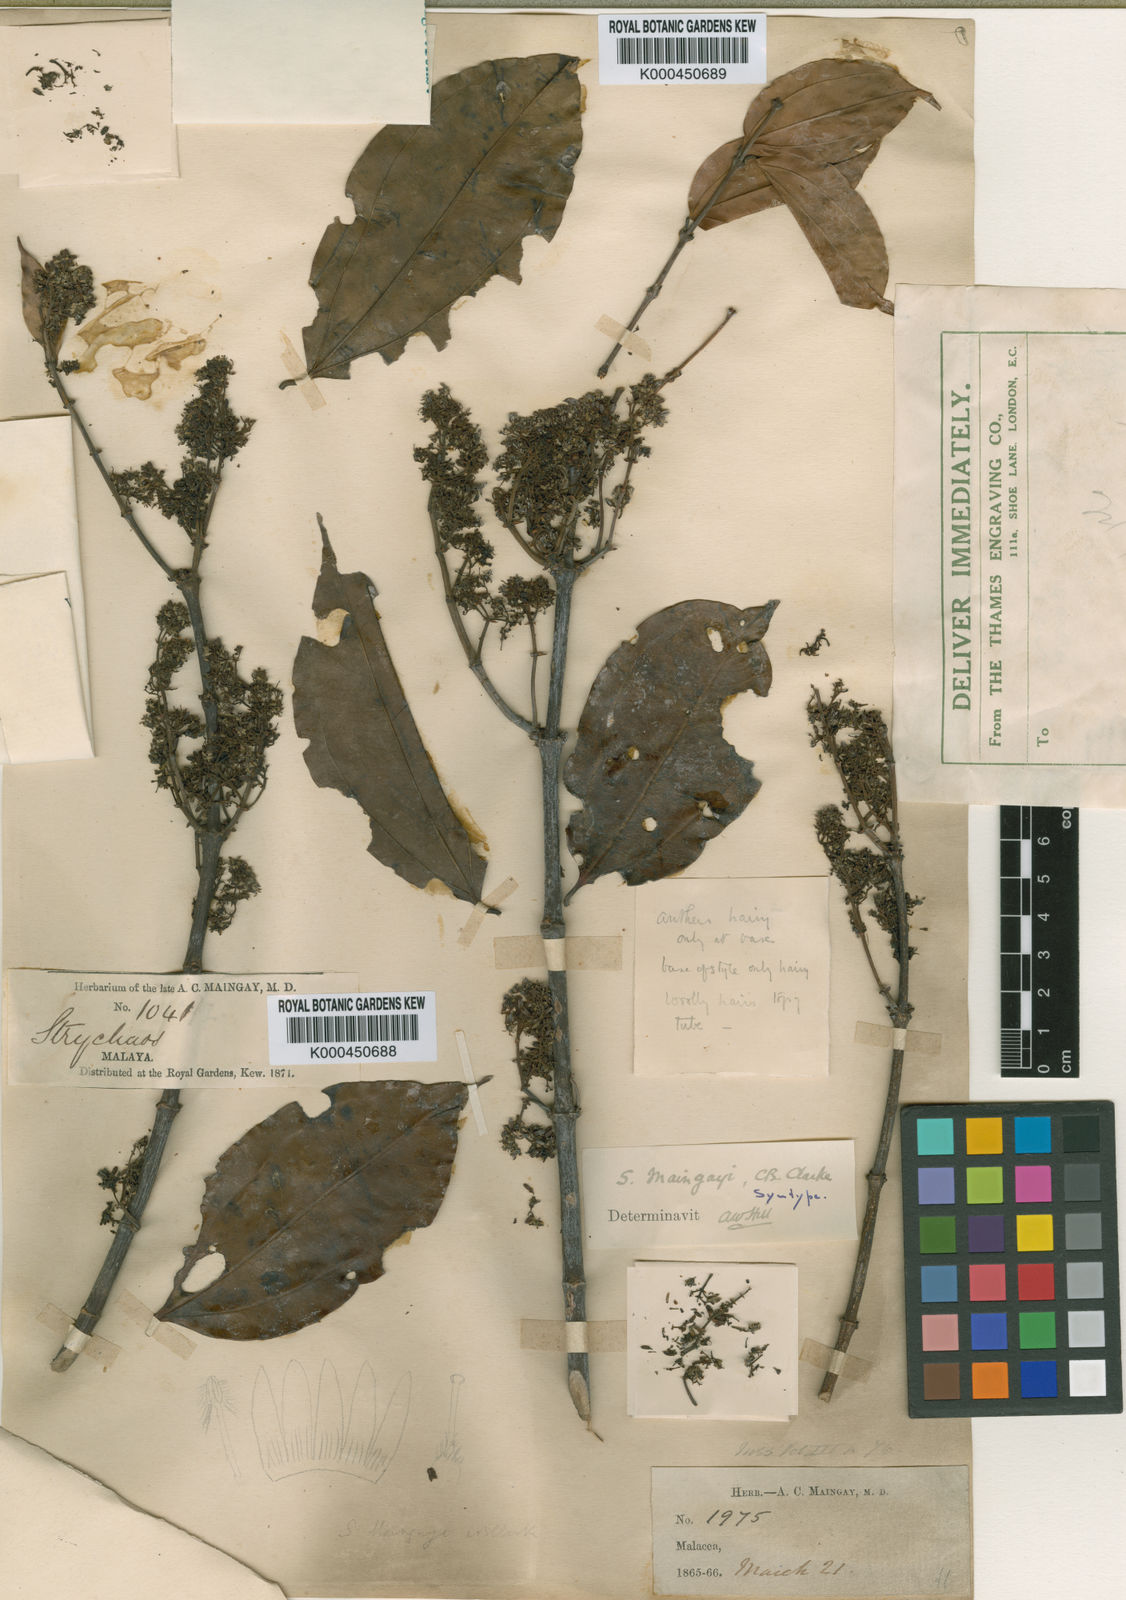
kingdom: Plantae
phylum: Tracheophyta
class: Magnoliopsida
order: Gentianales
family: Loganiaceae
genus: Strychnos
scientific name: Strychnos maingayi
